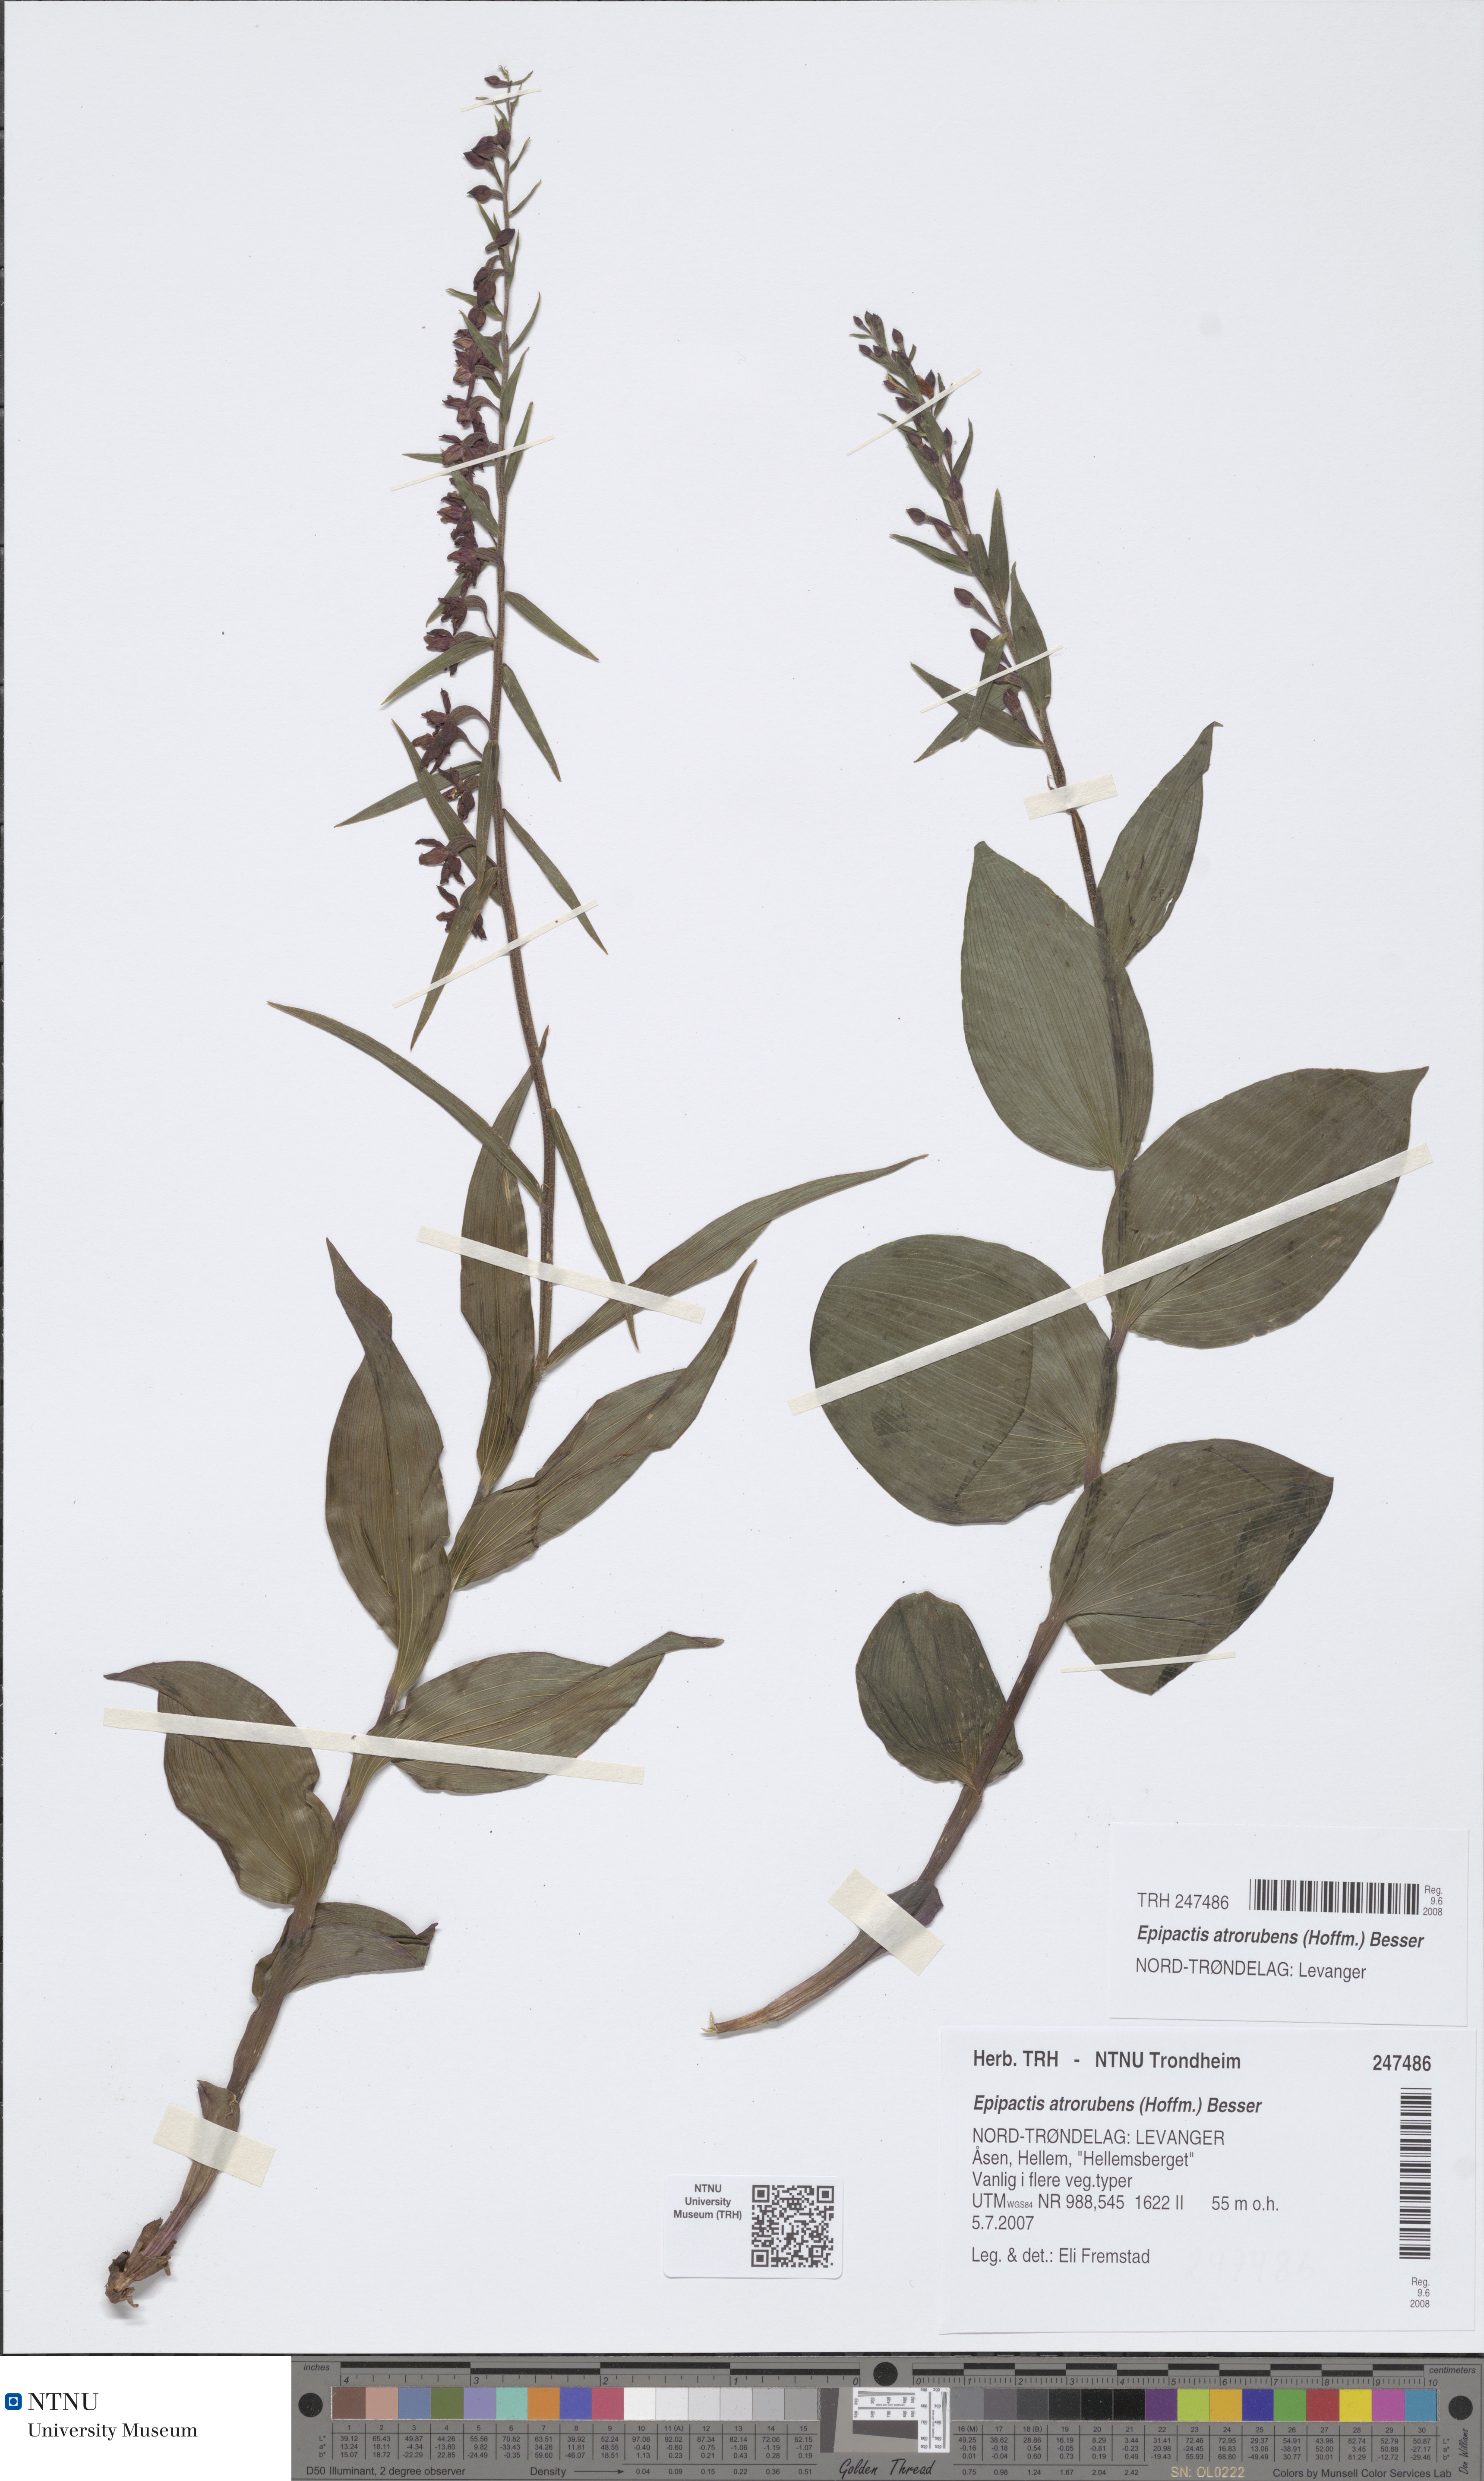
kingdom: Plantae
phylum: Tracheophyta
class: Liliopsida
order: Asparagales
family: Orchidaceae
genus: Epipactis
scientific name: Epipactis atrorubens
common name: Dark-red helleborine
